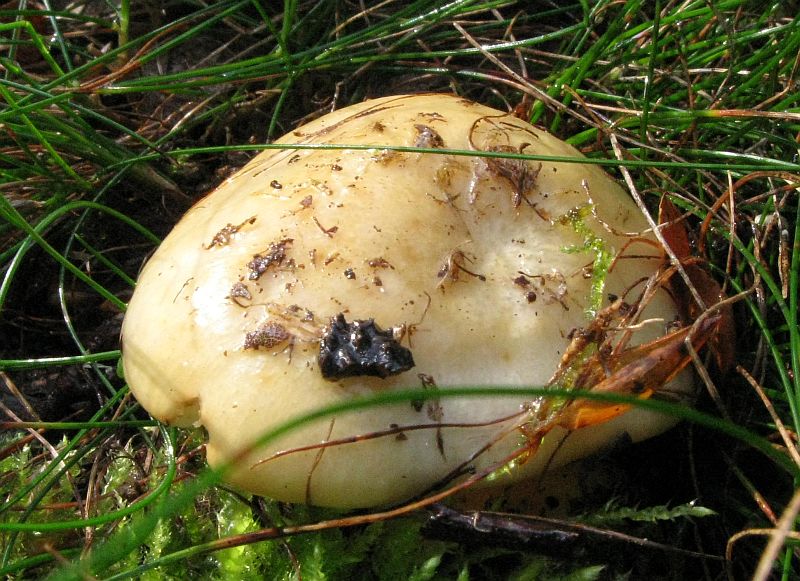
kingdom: Fungi
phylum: Basidiomycota
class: Agaricomycetes
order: Russulales
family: Russulaceae
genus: Russula
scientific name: Russula ochroleuca
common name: okkergul skørhat
